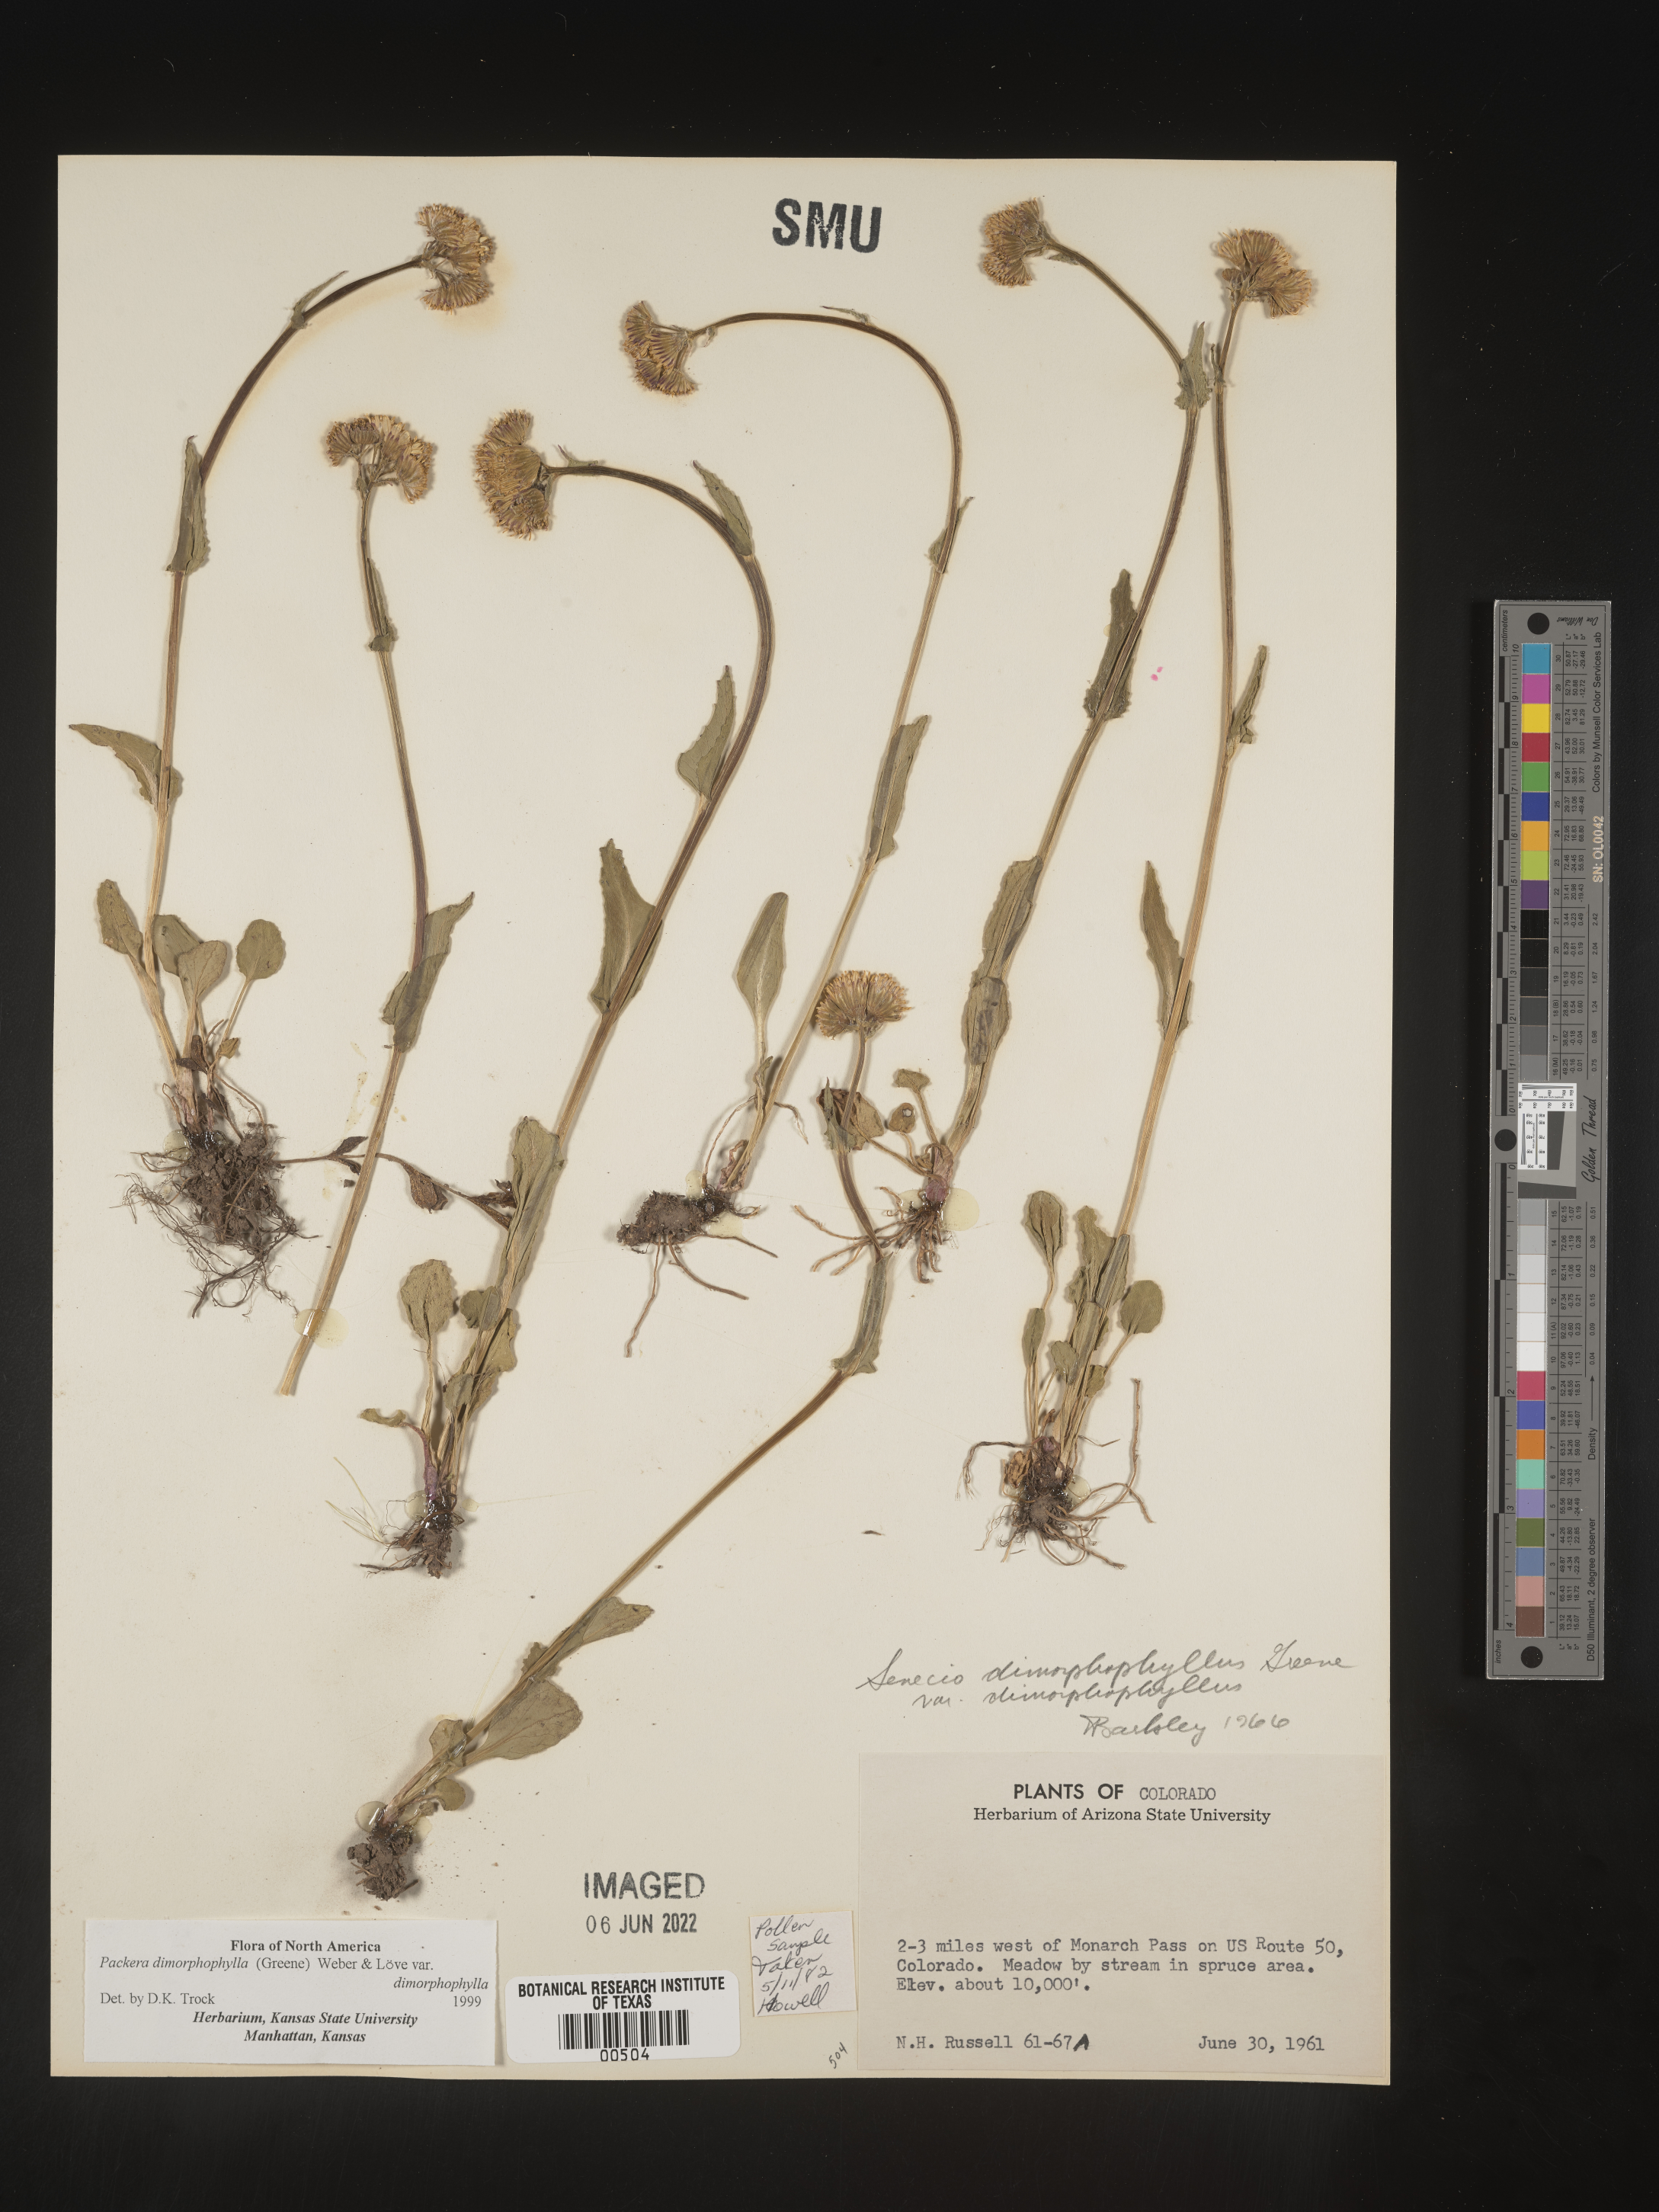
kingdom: Plantae
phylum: Tracheophyta
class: Magnoliopsida
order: Asterales
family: Asteraceae
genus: Packera
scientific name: Packera dimorphophylla
